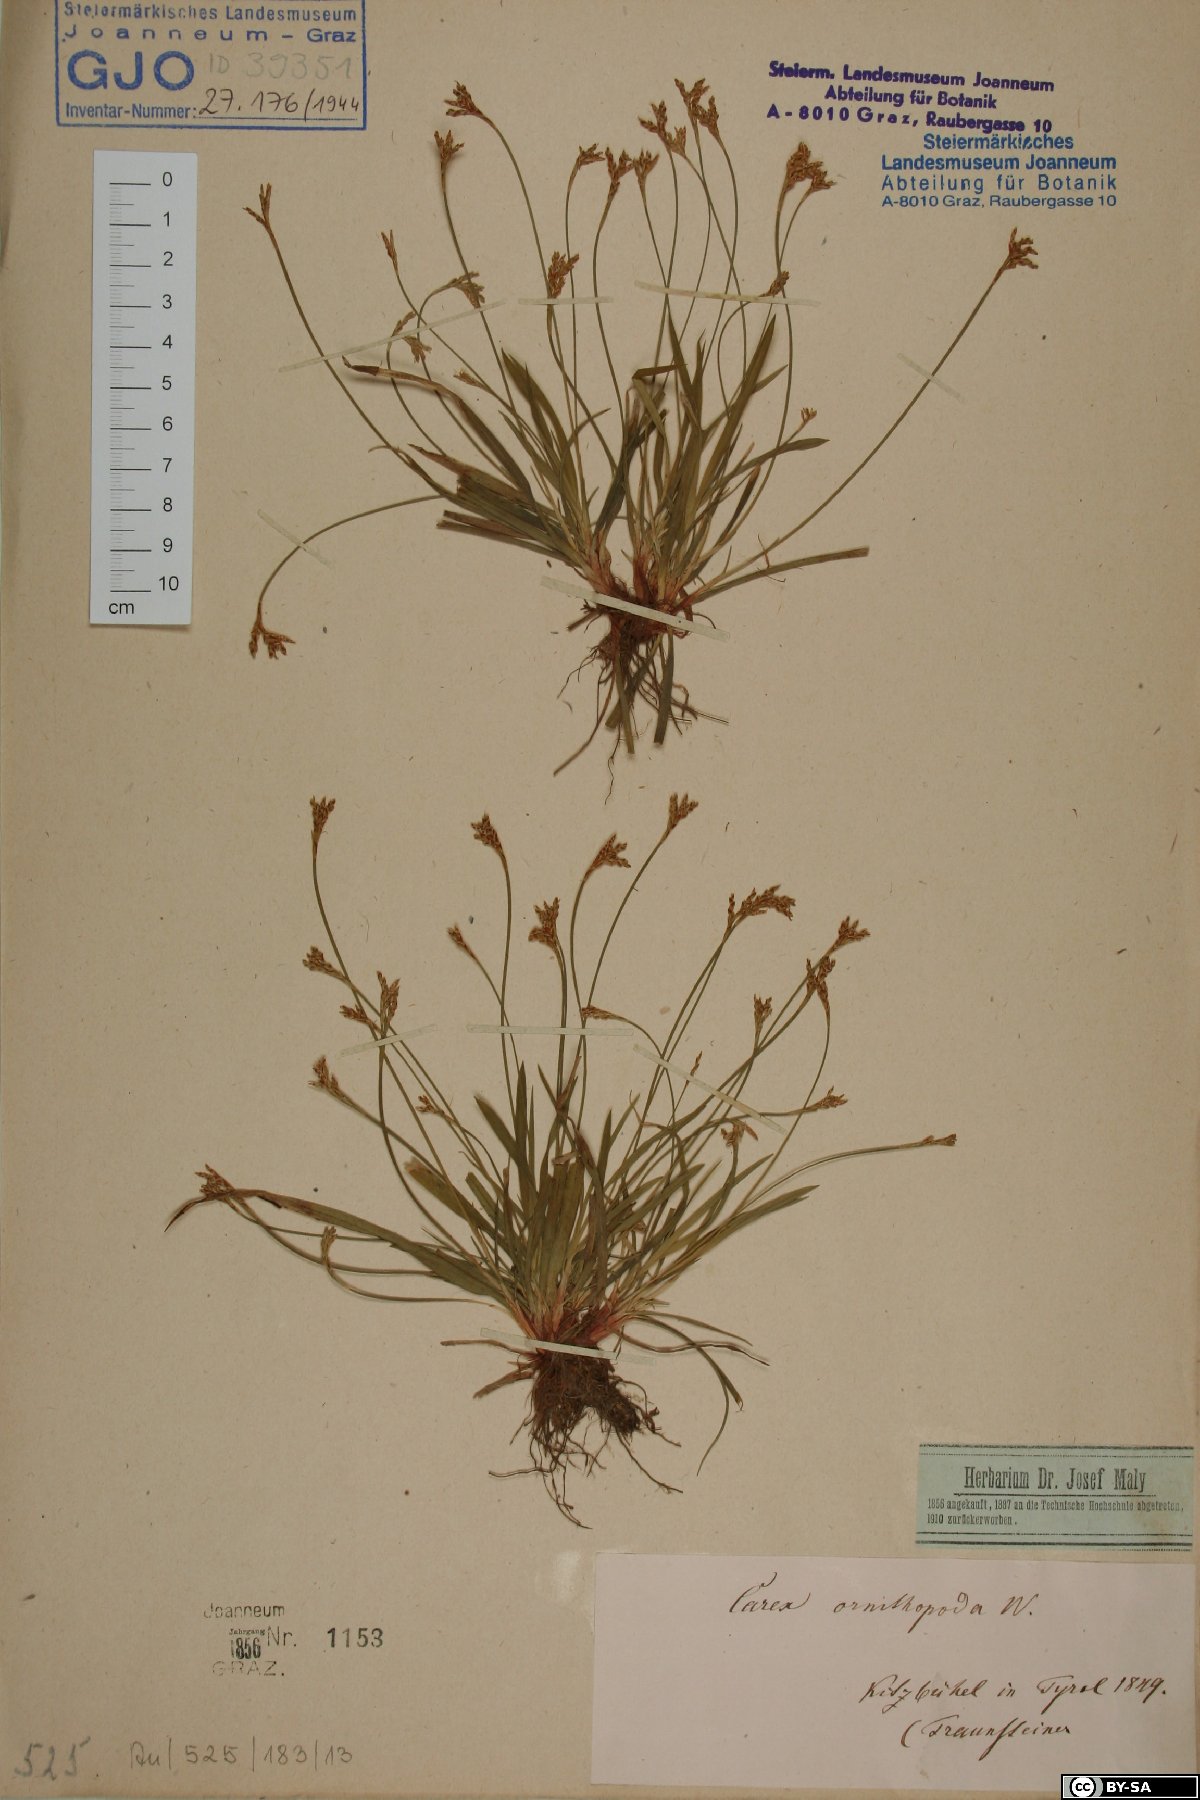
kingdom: Plantae
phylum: Tracheophyta
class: Liliopsida
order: Poales
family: Cyperaceae
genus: Carex
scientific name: Carex ornithopoda
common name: Bird's-foot sedge
